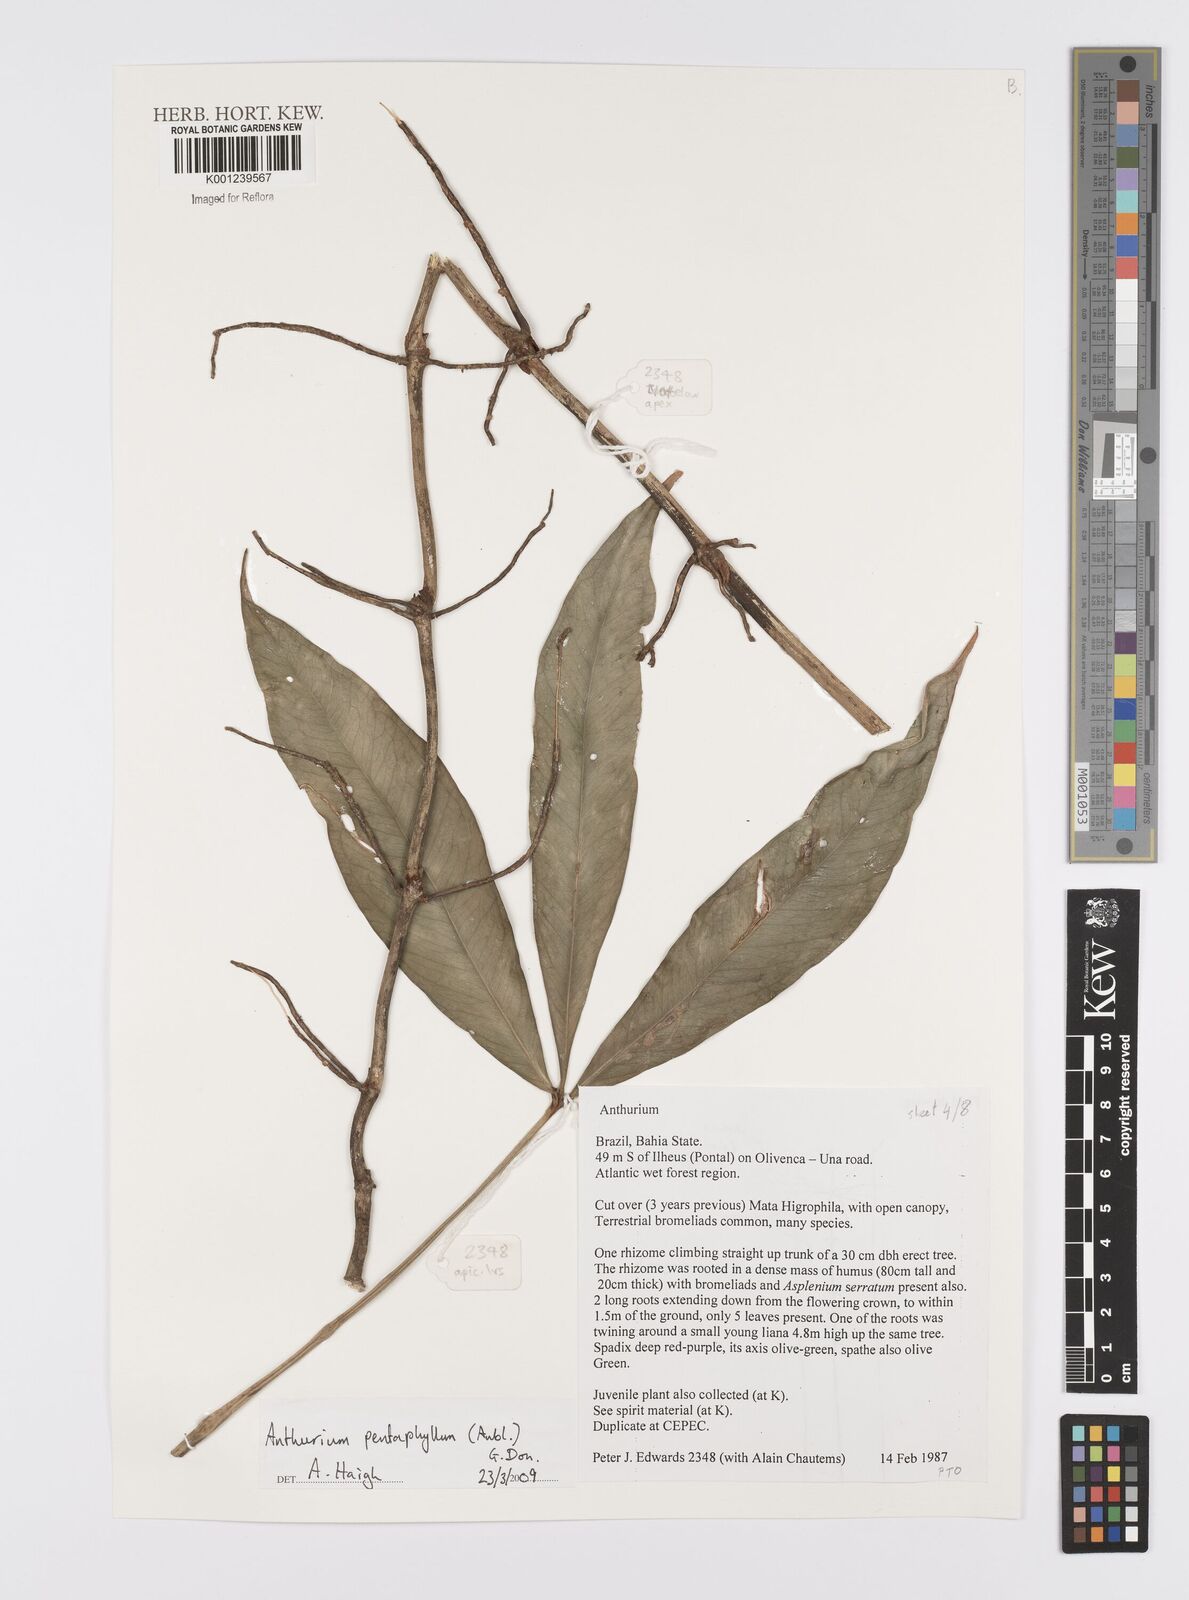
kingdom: Plantae
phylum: Tracheophyta
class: Liliopsida
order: Alismatales
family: Araceae
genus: Anthurium
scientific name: Anthurium pentaphyllum
